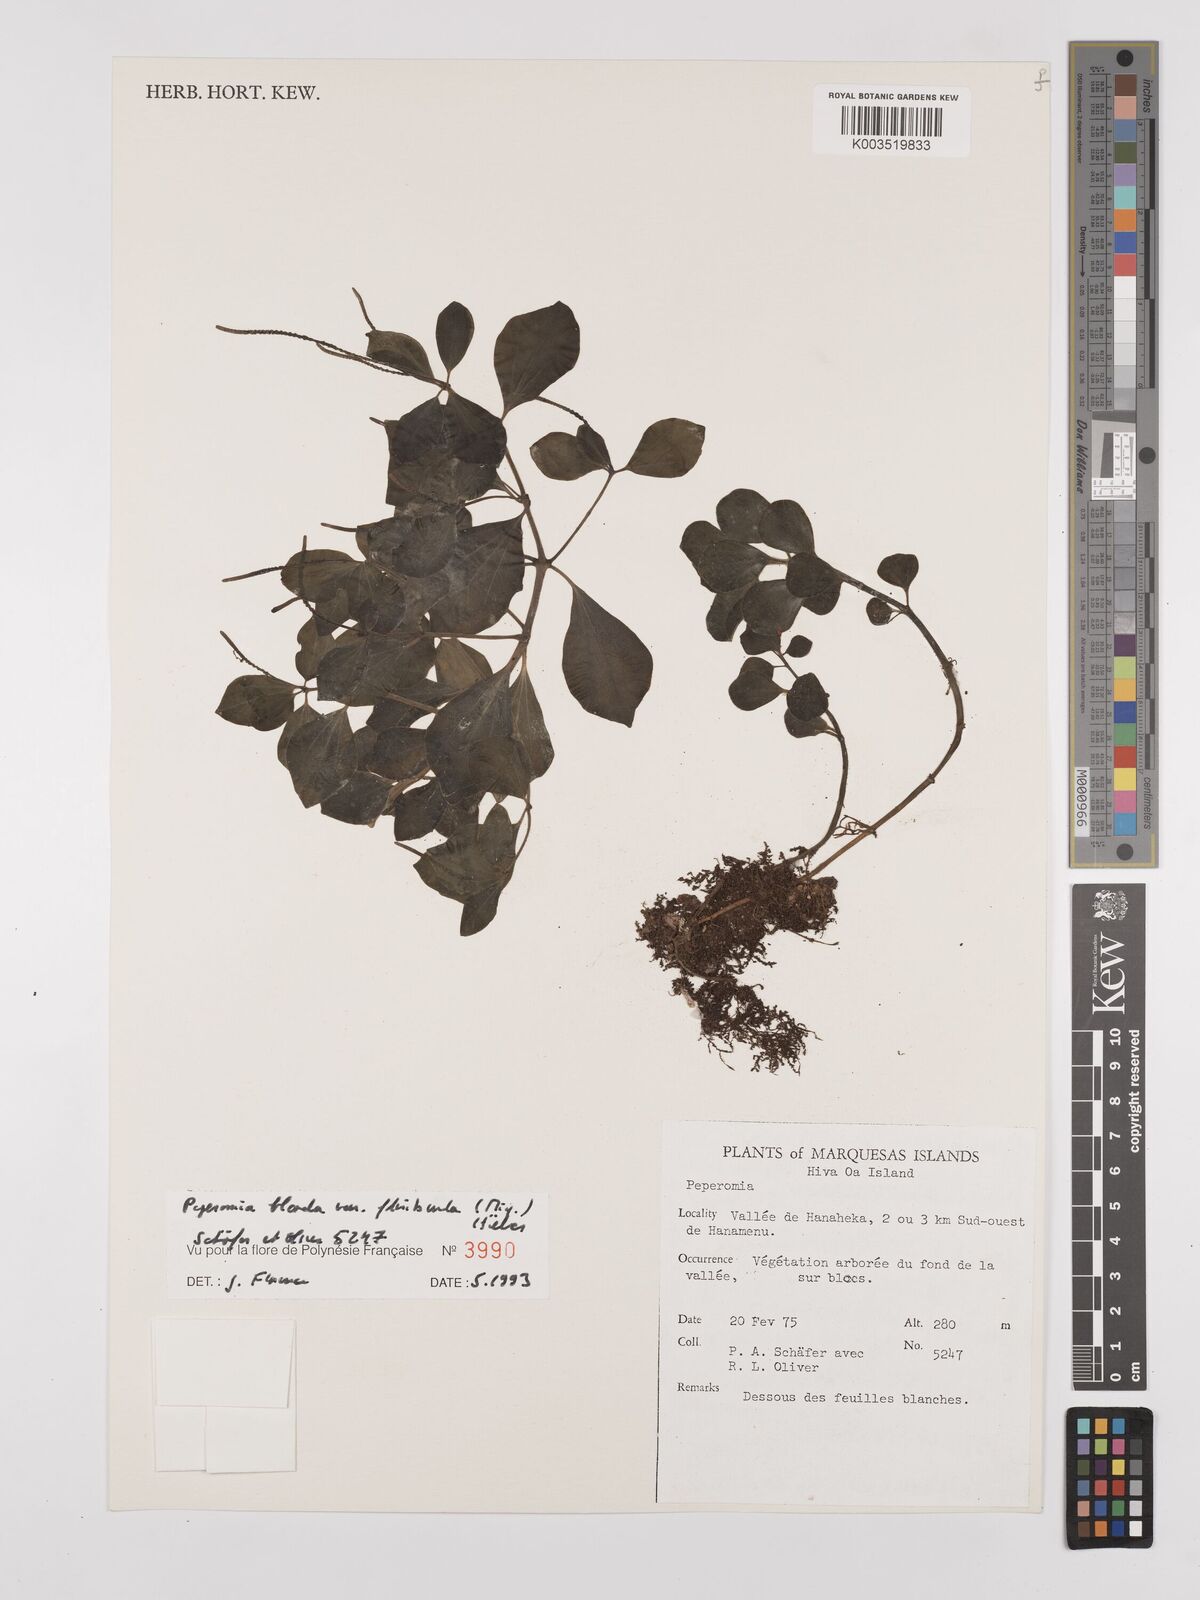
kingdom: Plantae
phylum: Tracheophyta
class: Magnoliopsida
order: Piperales
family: Piperaceae
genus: Peperomia
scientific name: Peperomia leptostachya
